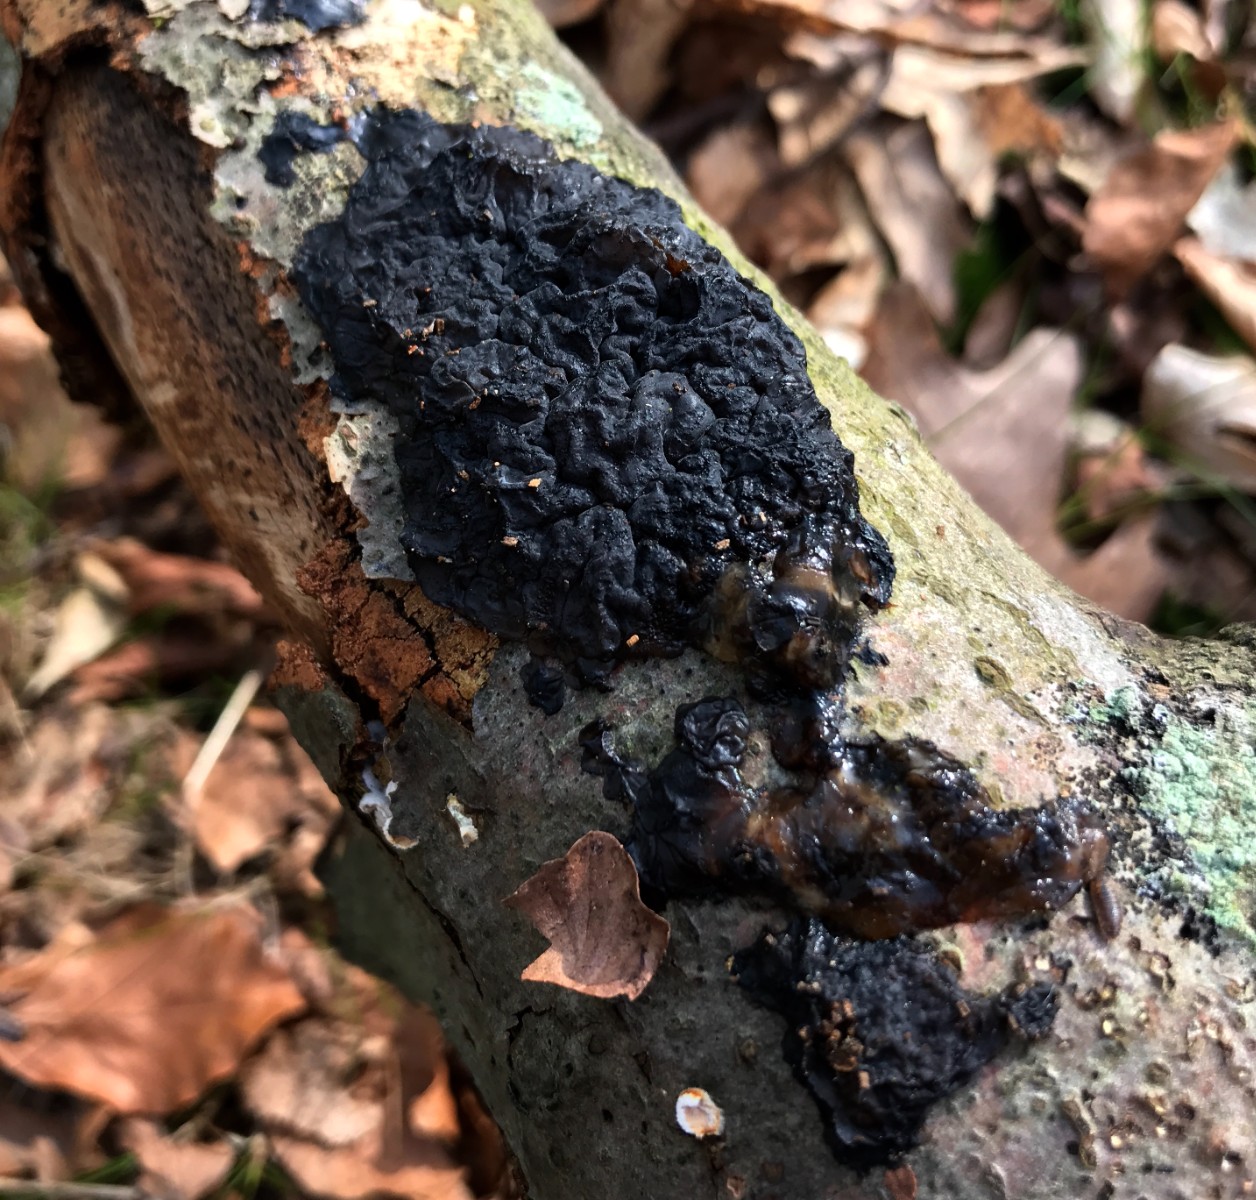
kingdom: Fungi
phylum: Basidiomycota
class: Agaricomycetes
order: Auriculariales
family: Auriculariaceae
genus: Exidia
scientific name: Exidia nigricans
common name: almindelig bævretop
